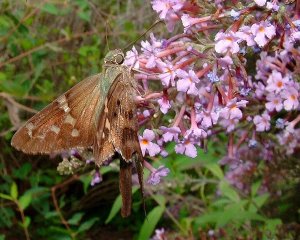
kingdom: Animalia
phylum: Arthropoda
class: Insecta
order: Lepidoptera
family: Hesperiidae
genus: Urbanus
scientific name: Urbanus proteus
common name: Long-tailed Skipper
